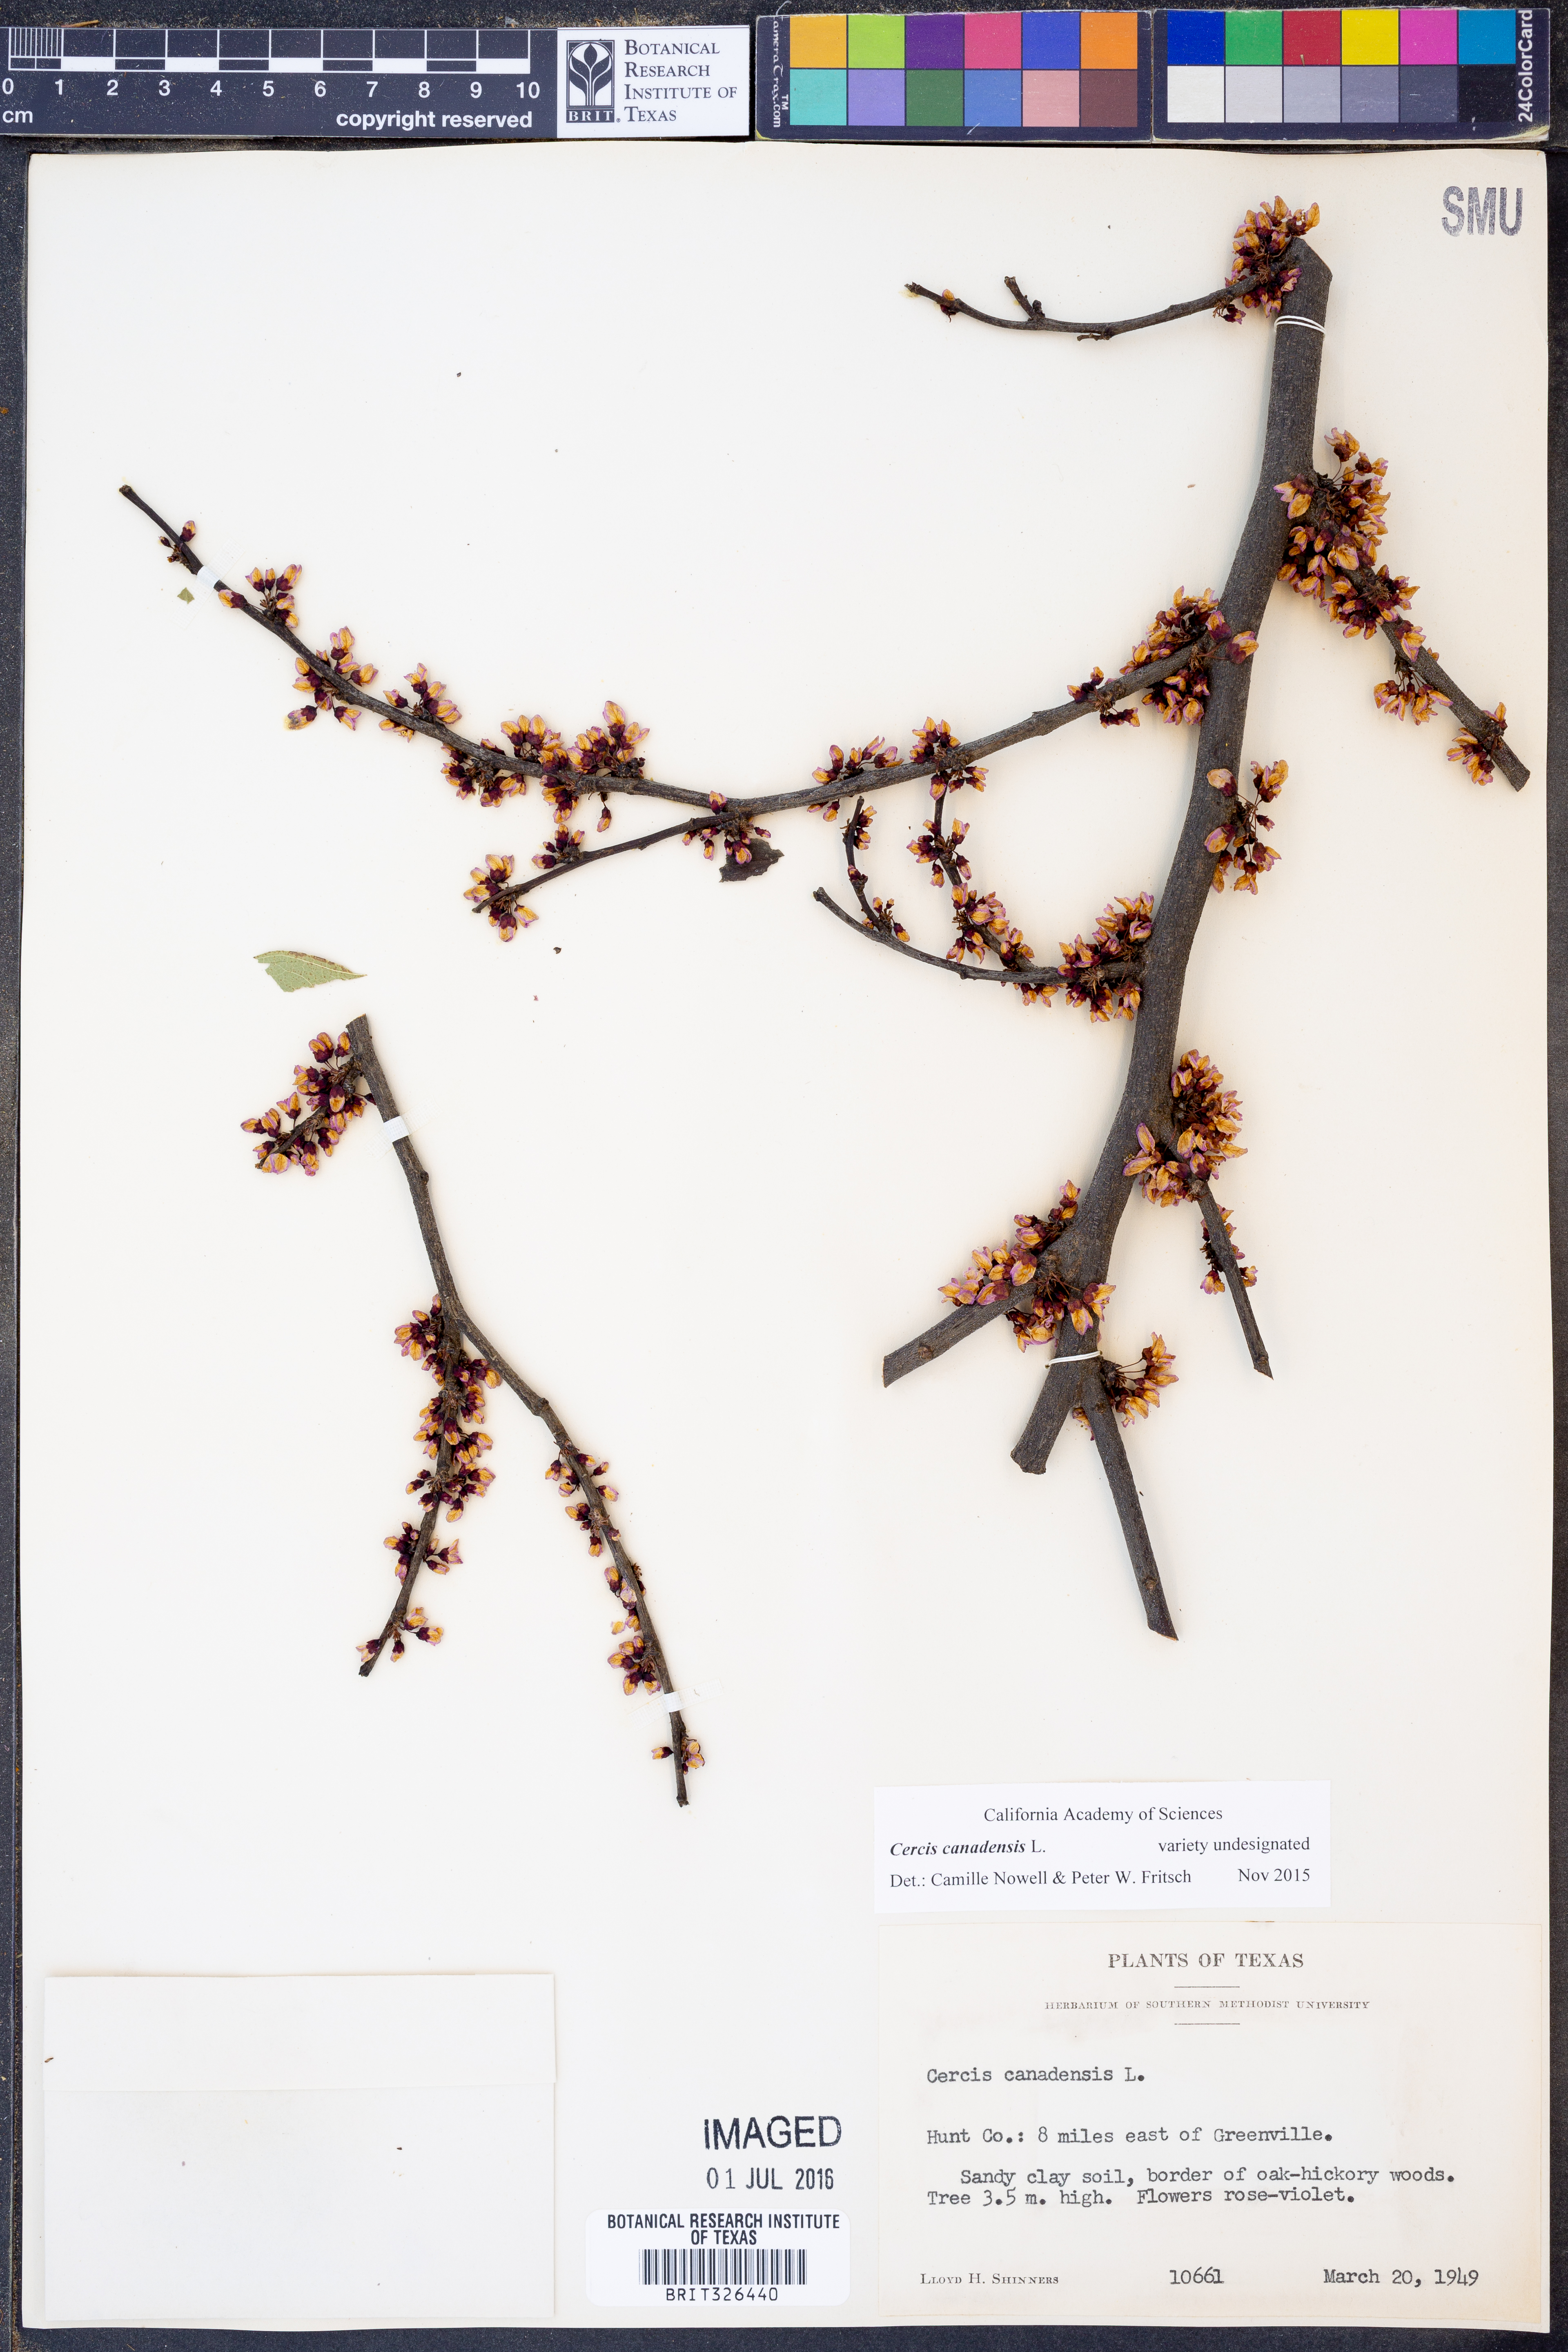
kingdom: Plantae
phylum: Tracheophyta
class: Magnoliopsida
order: Fabales
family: Fabaceae
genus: Cercis
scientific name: Cercis canadensis
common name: Eastern redbud
